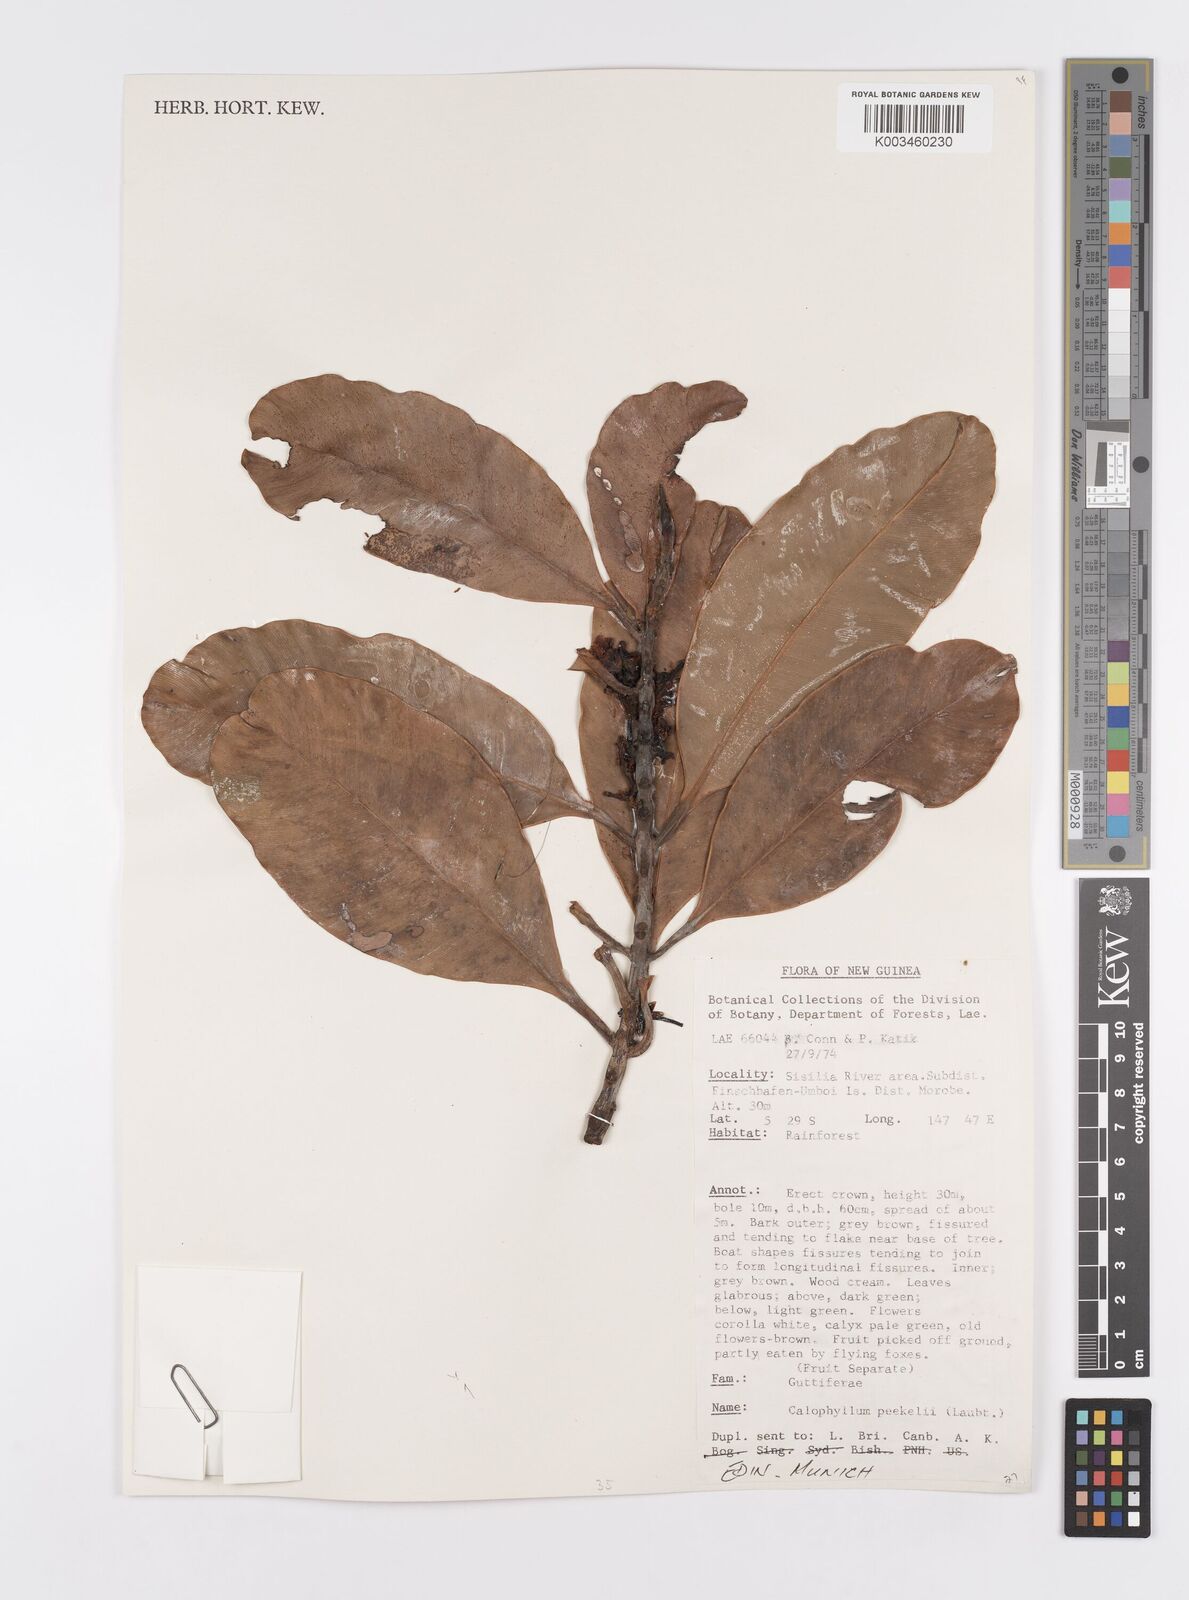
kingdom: Plantae
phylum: Tracheophyta
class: Magnoliopsida
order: Malpighiales
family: Calophyllaceae
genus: Calophyllum
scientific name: Calophyllum peekelii
